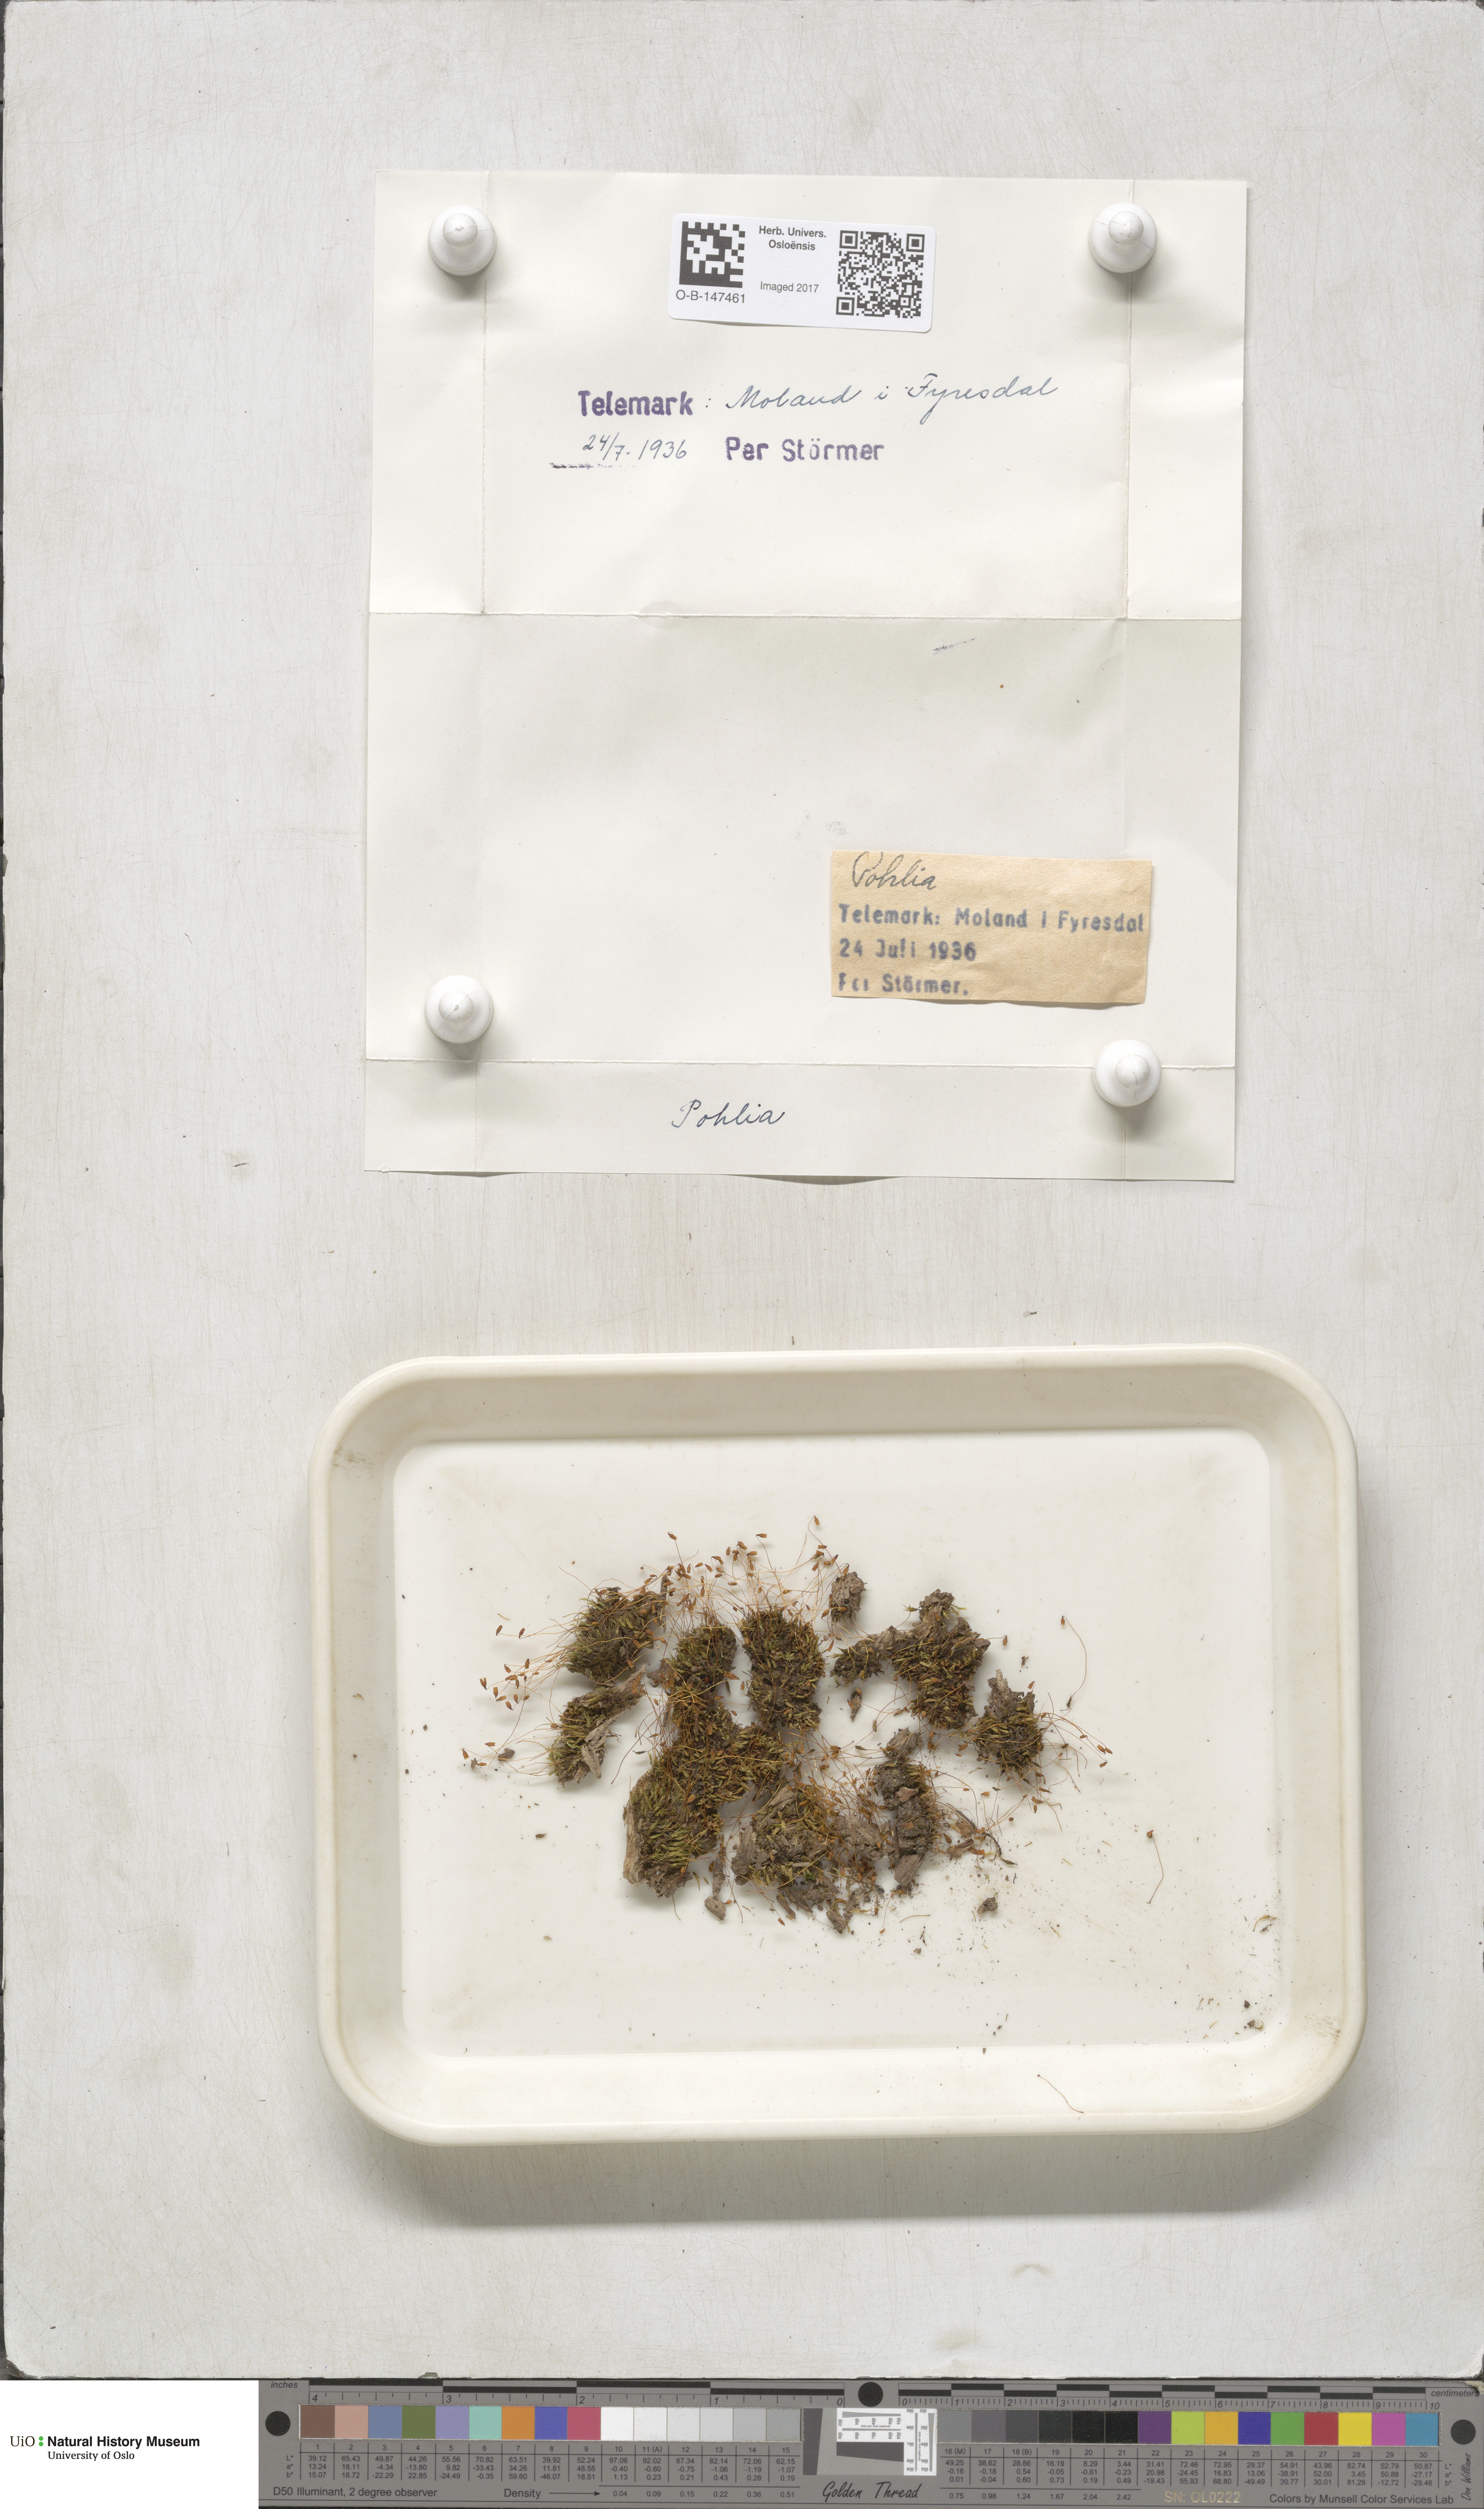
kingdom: Plantae
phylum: Bryophyta
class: Bryopsida
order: Bryales
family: Mniaceae
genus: Pohlia
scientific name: Pohlia
